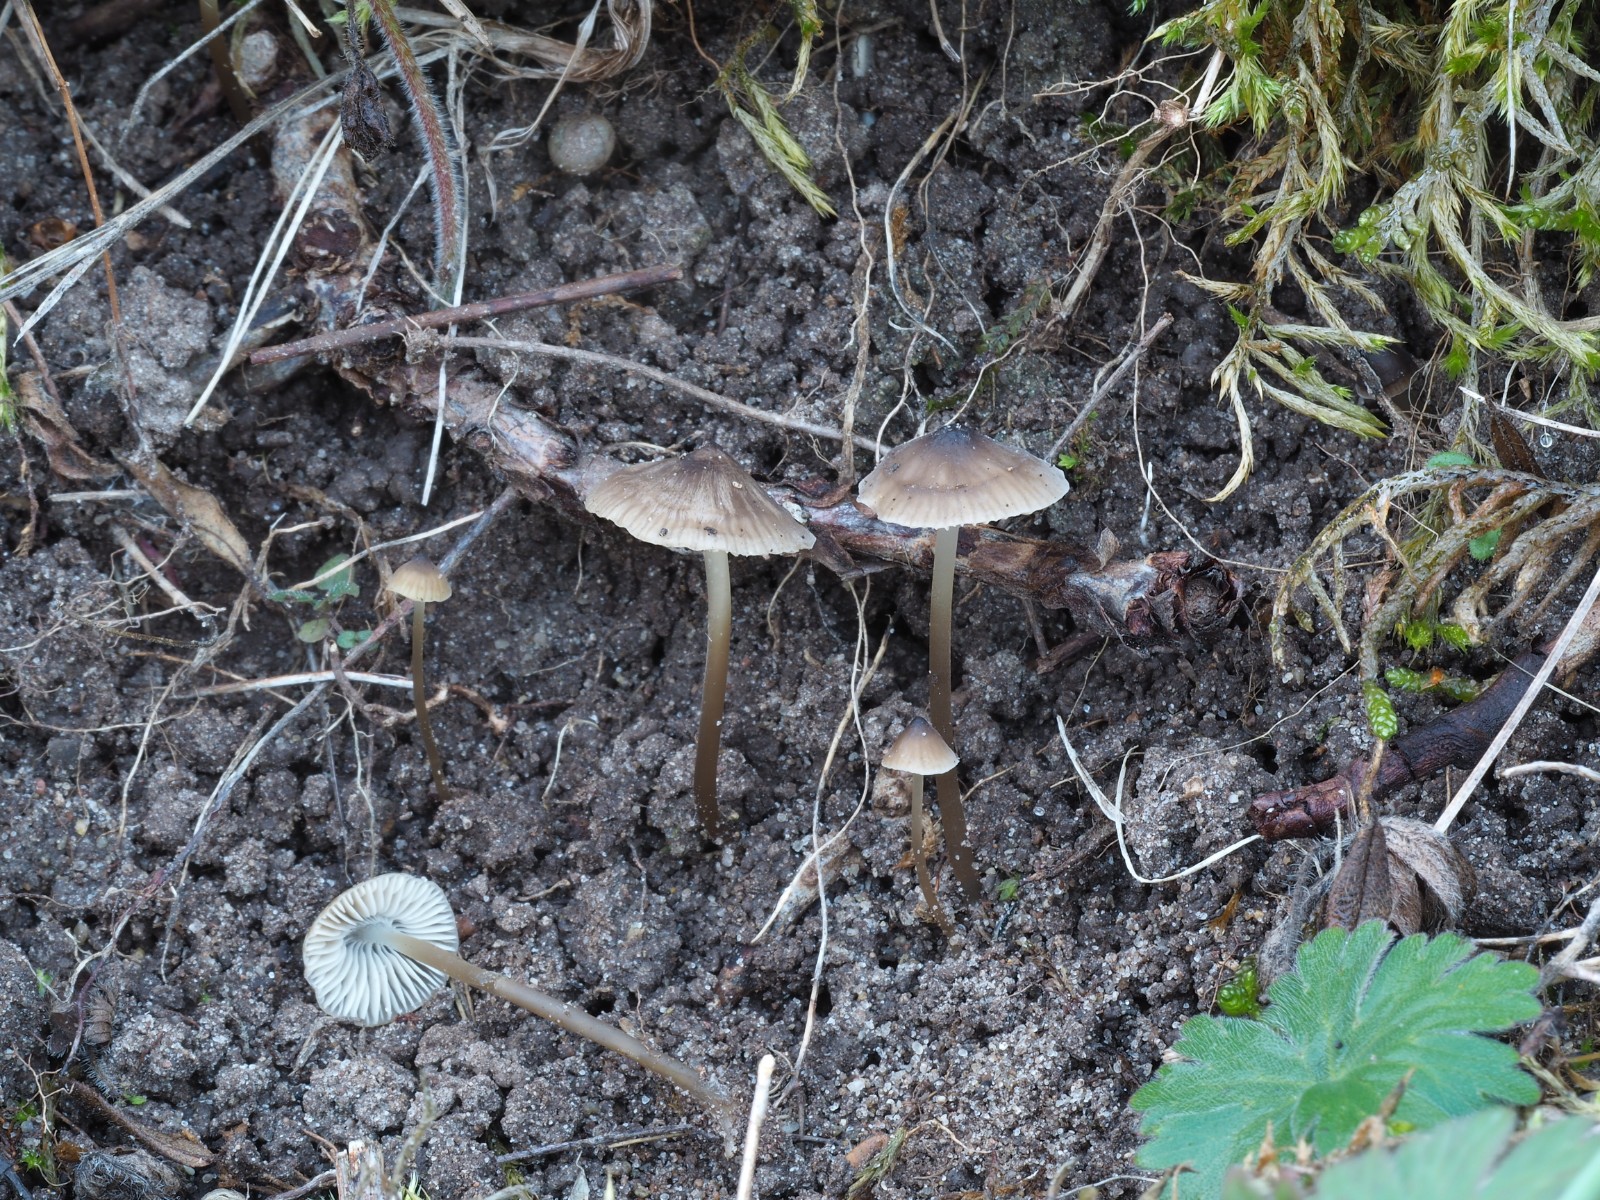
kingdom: Fungi
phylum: Basidiomycota
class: Agaricomycetes
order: Agaricales
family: Porotheleaceae
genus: Phloeomana
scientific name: Phloeomana atropapillata
